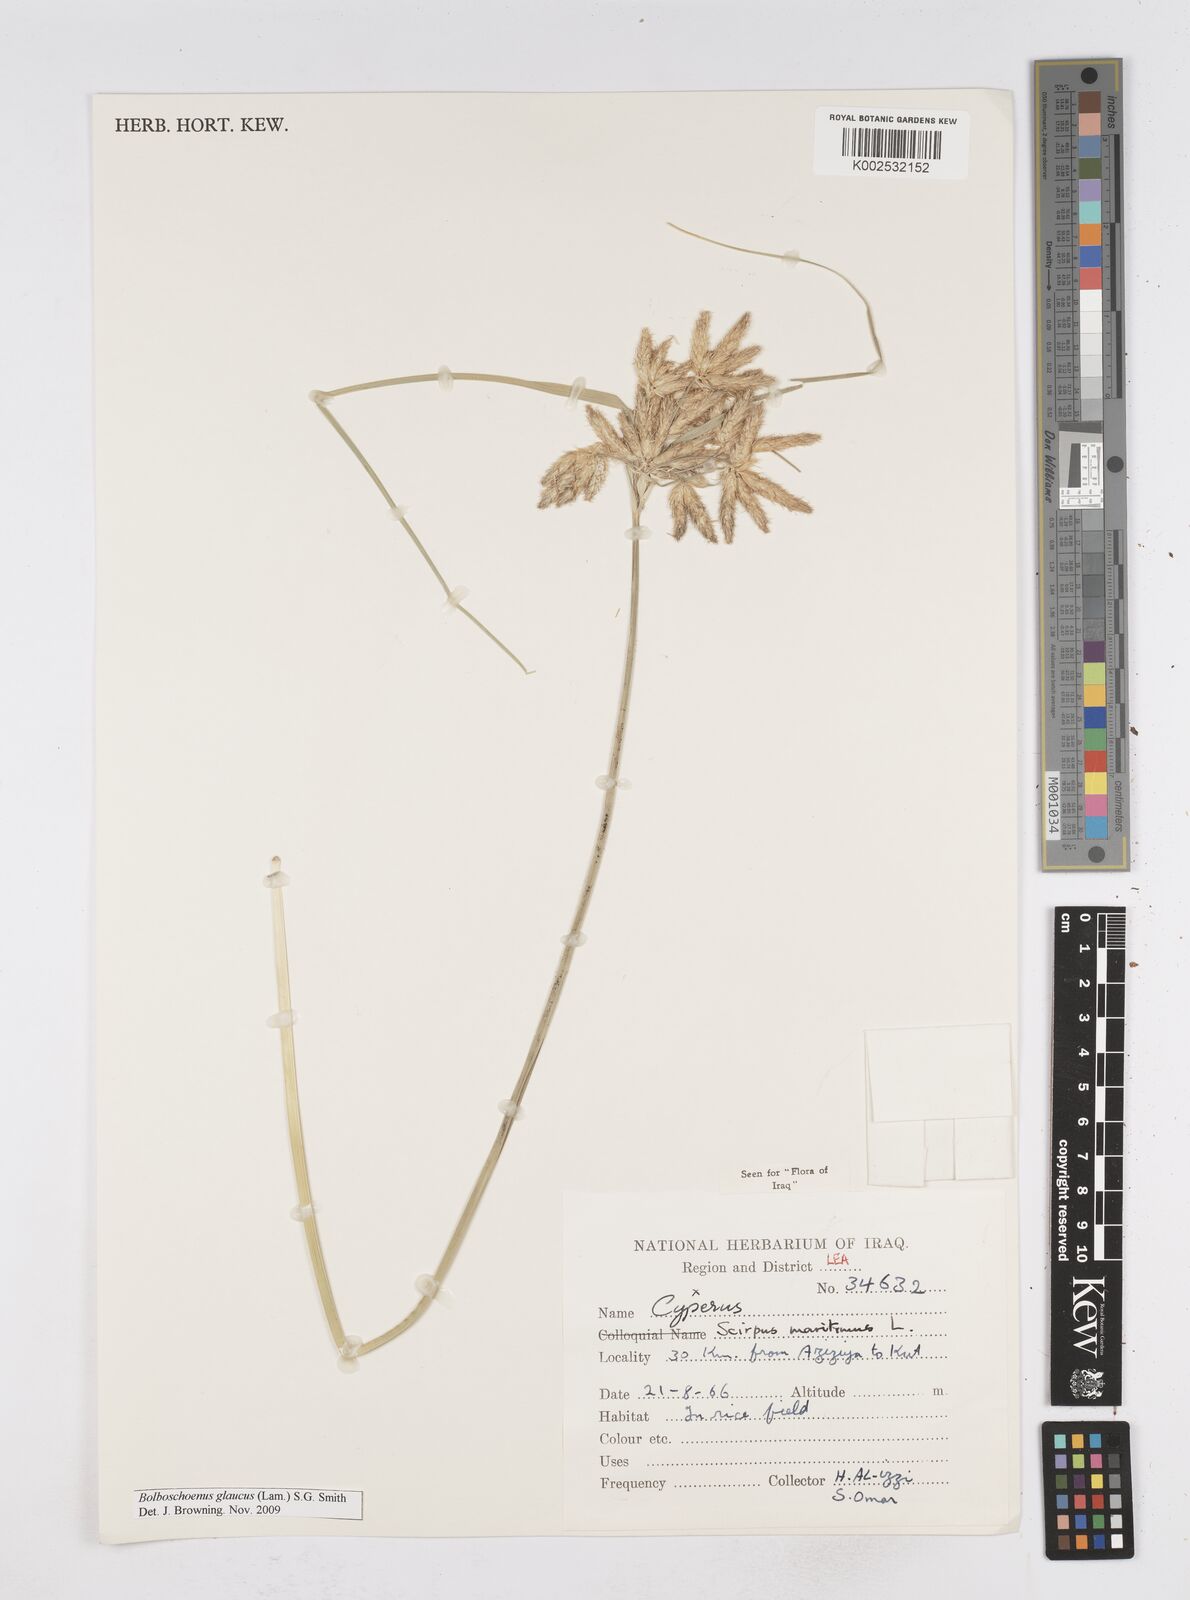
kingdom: Plantae
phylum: Tracheophyta
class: Liliopsida
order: Poales
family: Cyperaceae
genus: Bolboschoenus
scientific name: Bolboschoenus maritimus
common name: Sea club-rush
